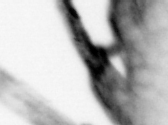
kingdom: Animalia
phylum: Annelida
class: Polychaeta
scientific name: Polychaeta
